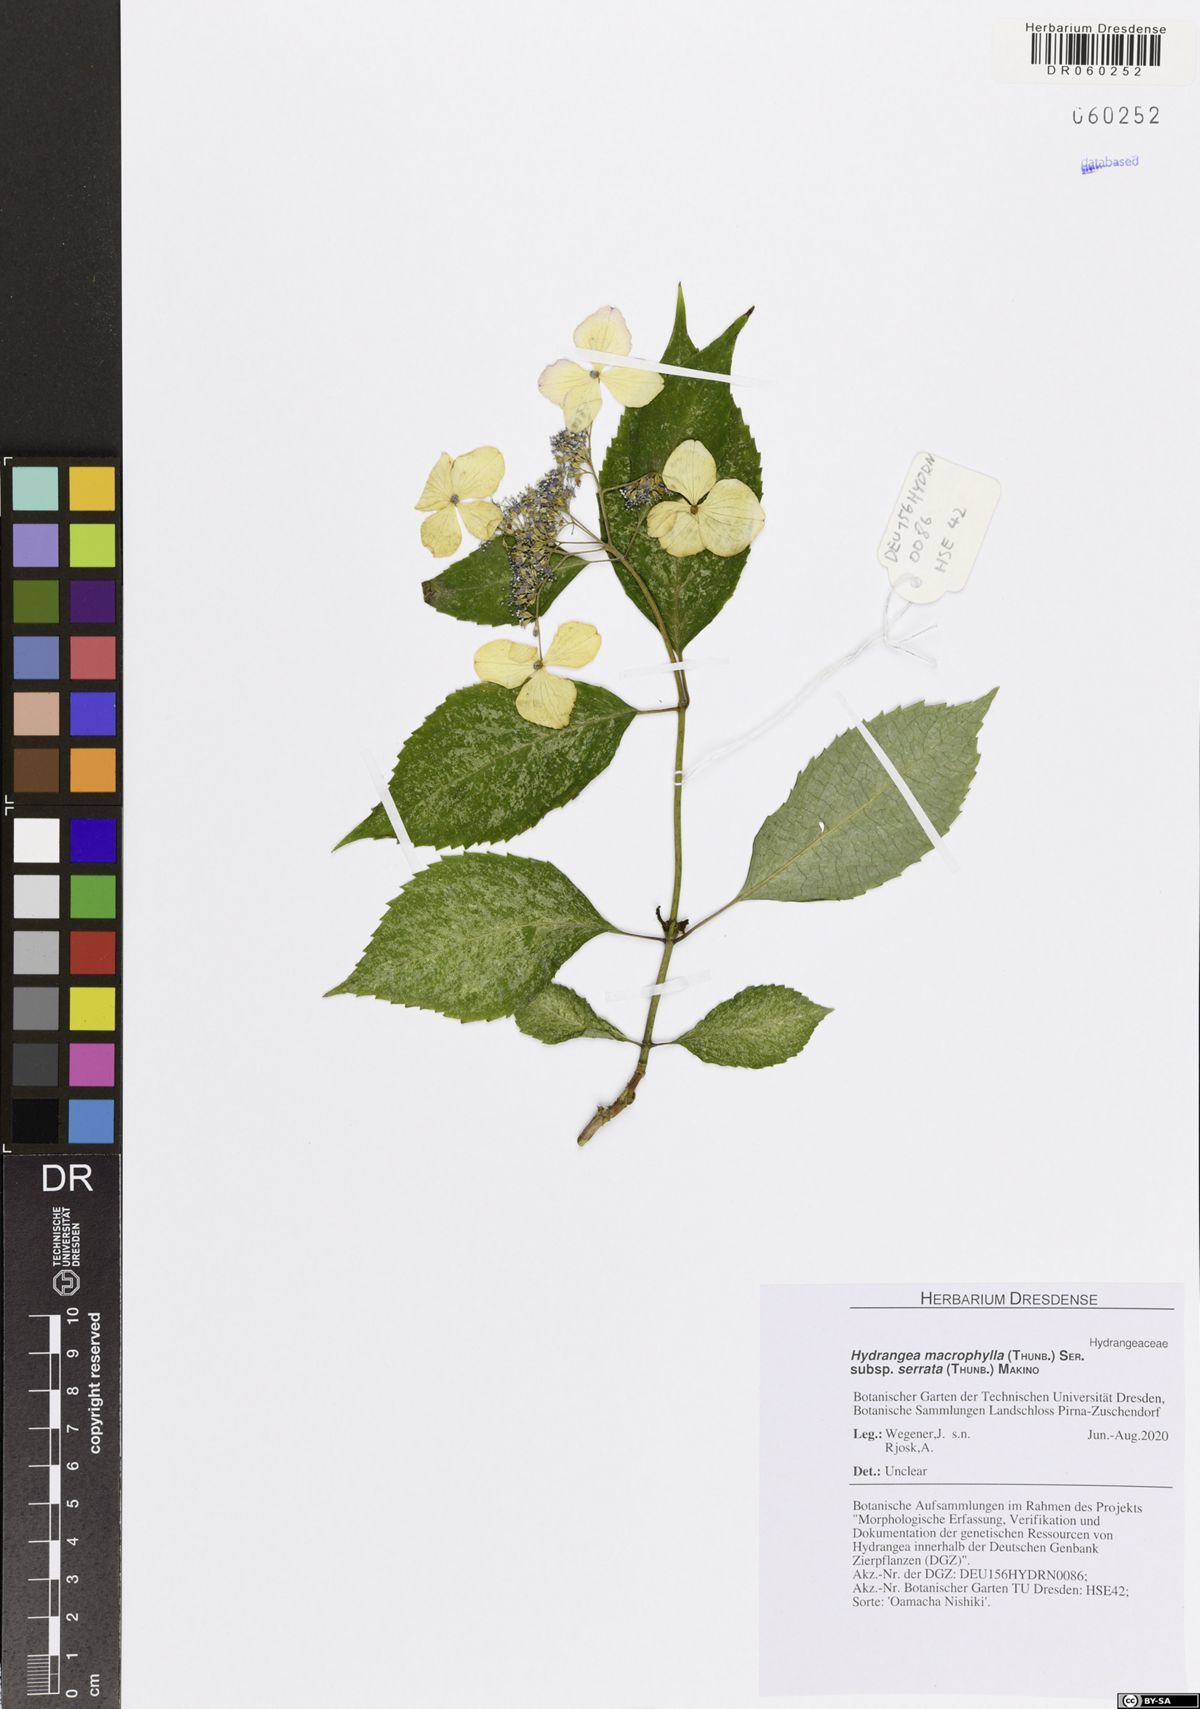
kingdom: Plantae
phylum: Tracheophyta
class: Magnoliopsida
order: Cornales
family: Hydrangeaceae
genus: Hydrangea
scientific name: Hydrangea serrata
